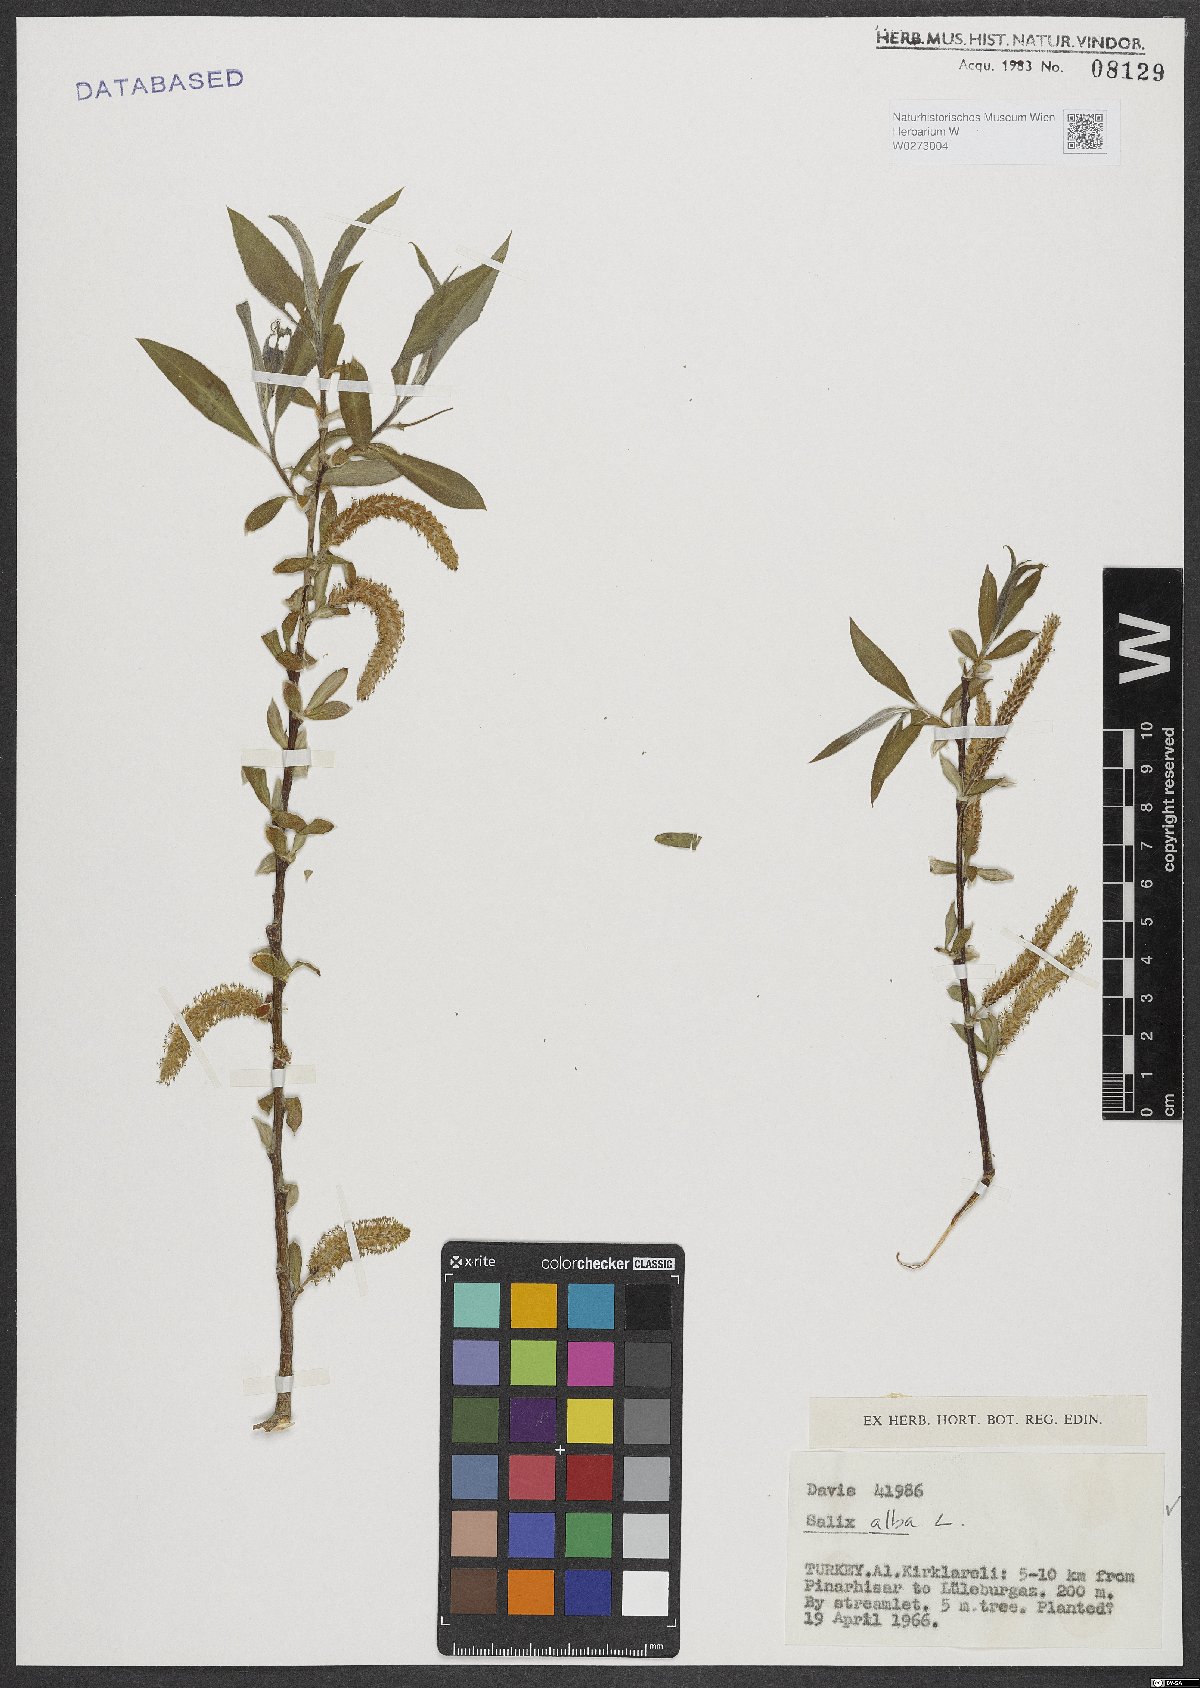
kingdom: Plantae
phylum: Tracheophyta
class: Magnoliopsida
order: Malpighiales
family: Salicaceae
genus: Salix
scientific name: Salix alba
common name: White willow
